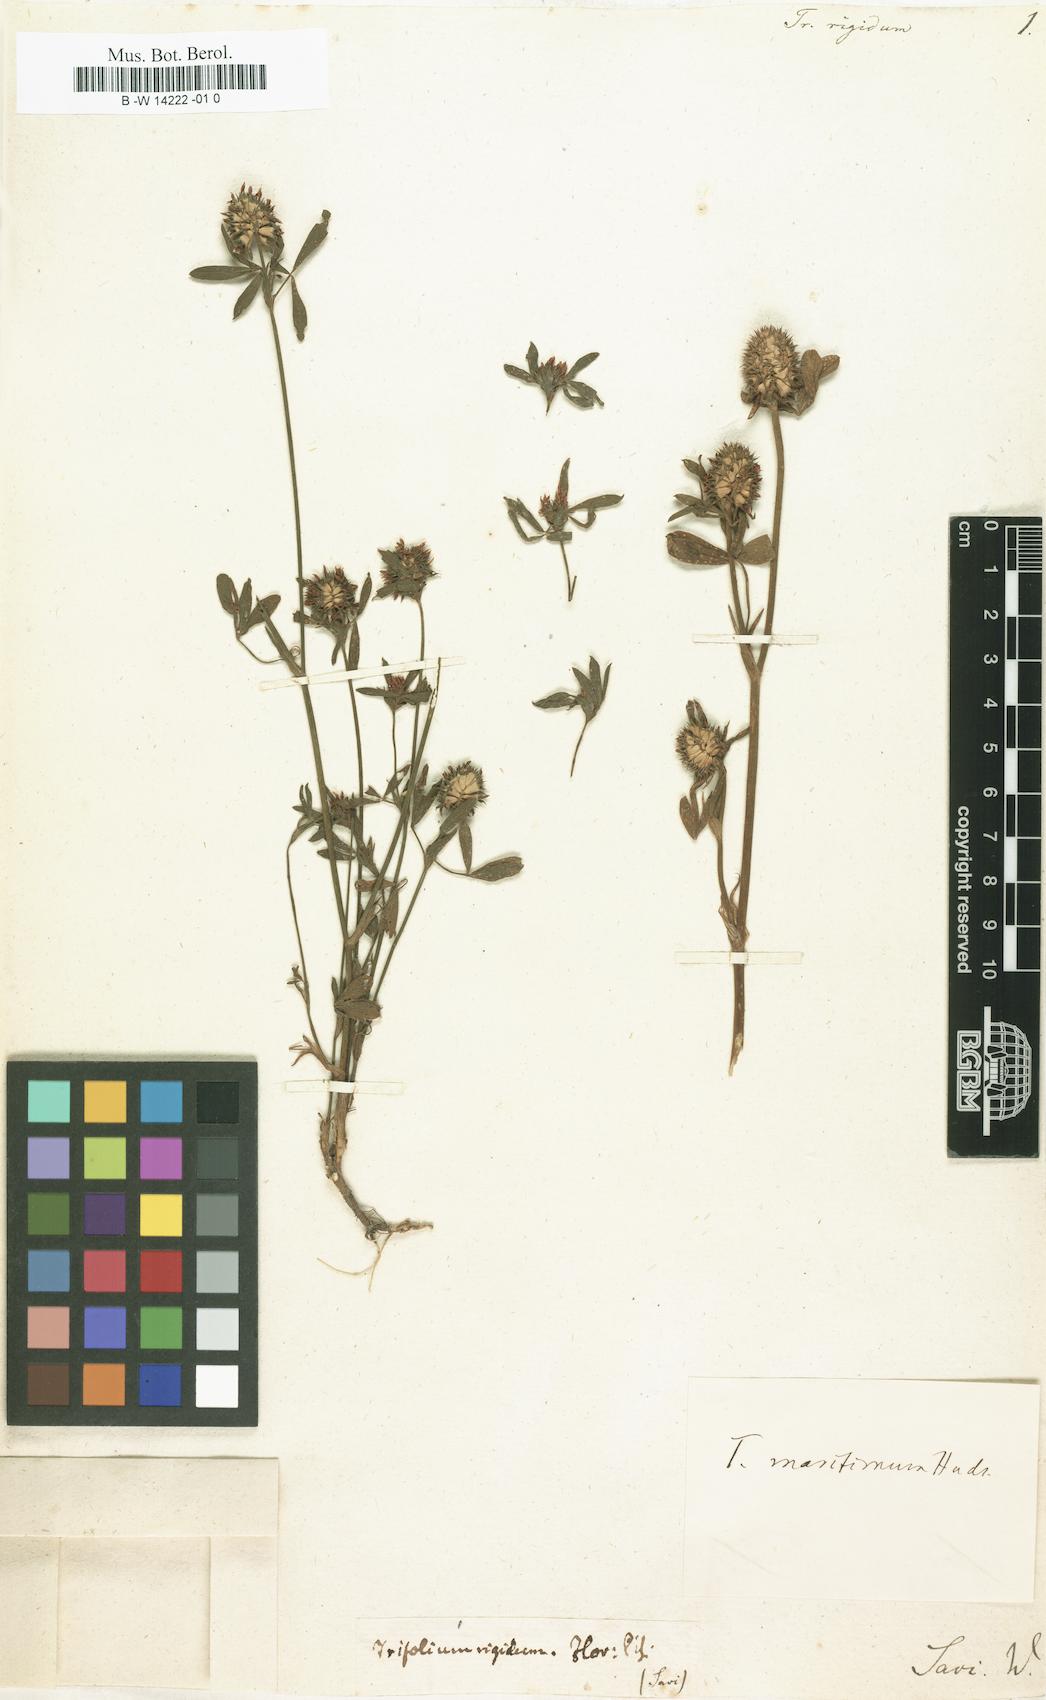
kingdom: Plantae
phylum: Tracheophyta
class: Magnoliopsida
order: Fabales
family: Fabaceae
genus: Trifolium
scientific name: Trifolium
